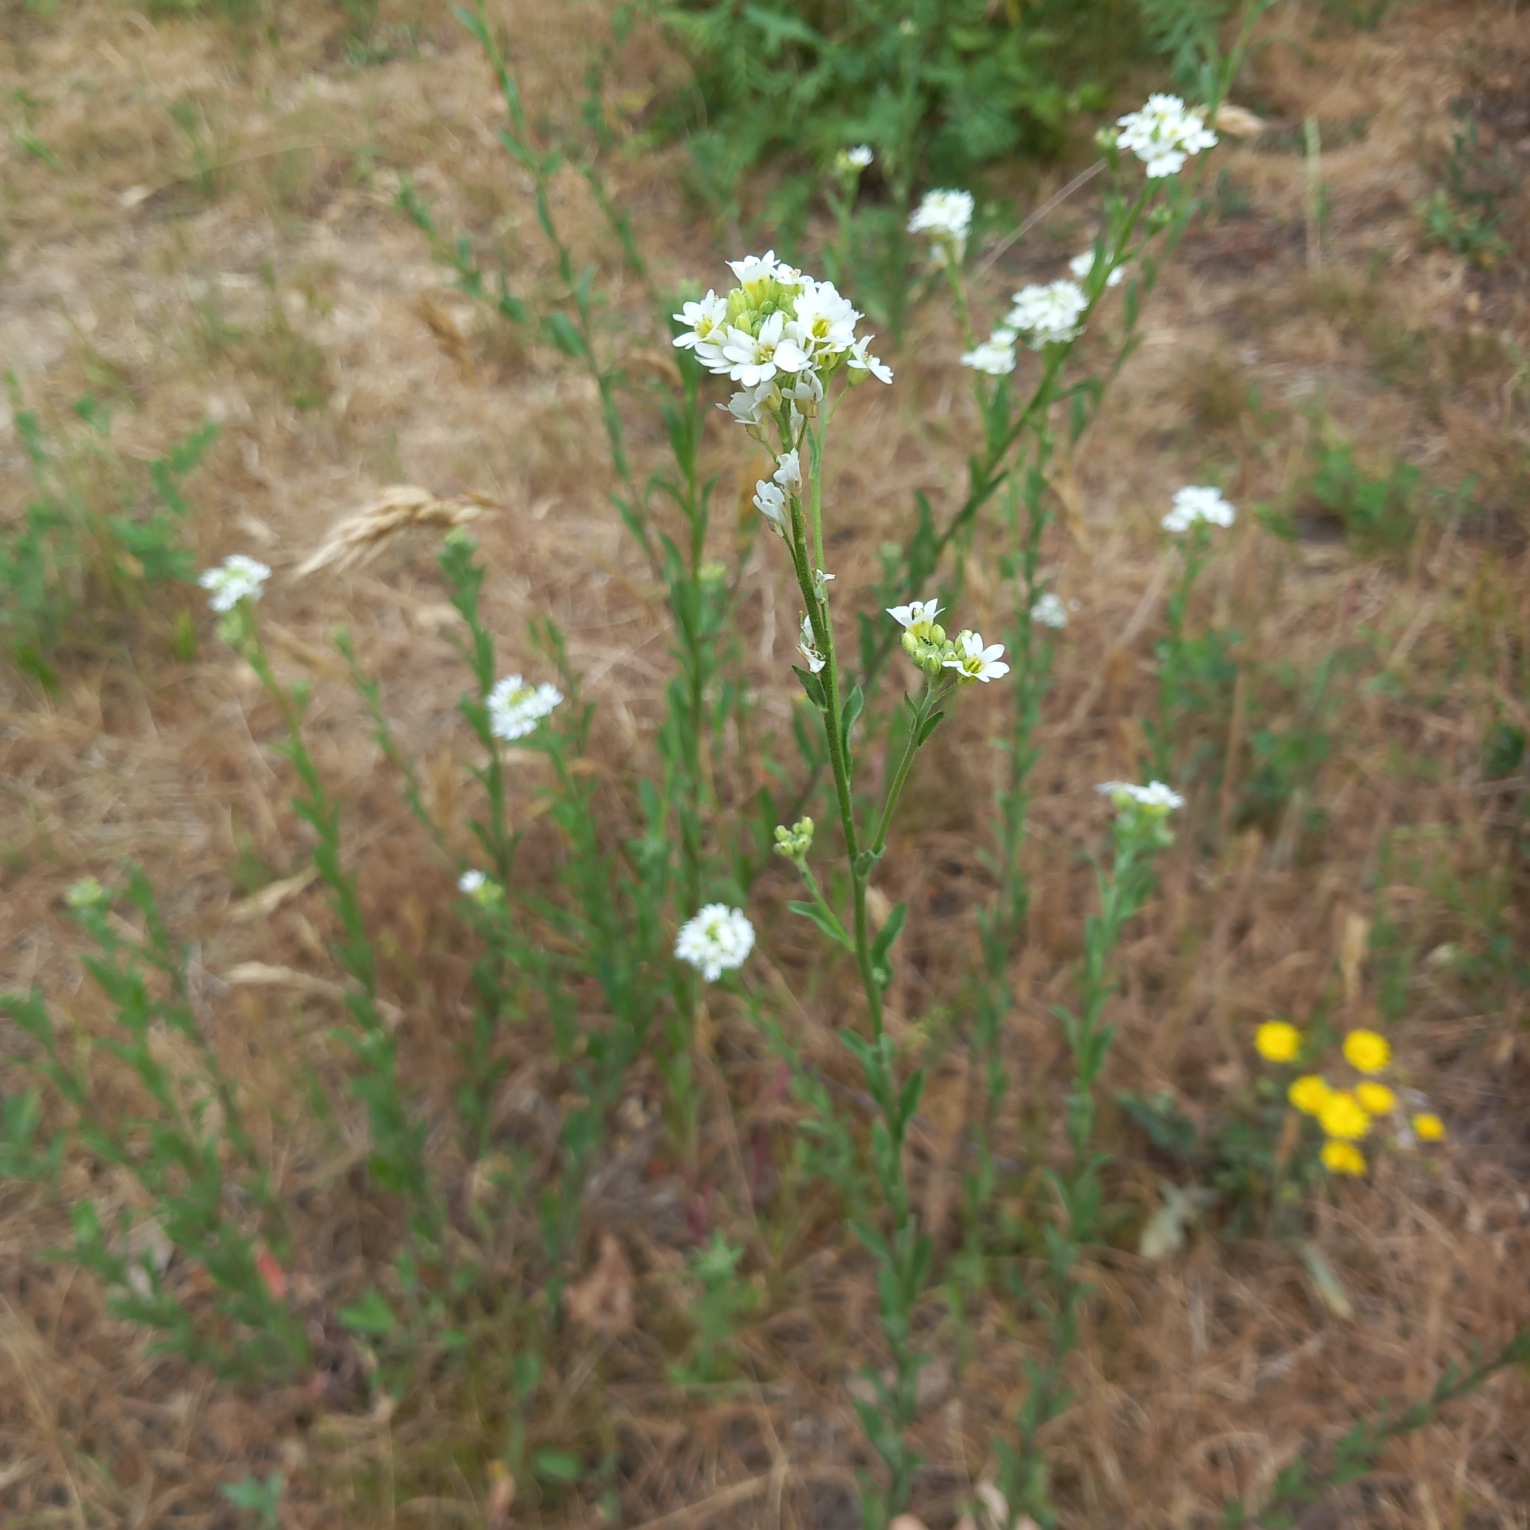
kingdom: Plantae
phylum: Tracheophyta
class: Magnoliopsida
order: Brassicales
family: Brassicaceae
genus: Berteroa
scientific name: Berteroa incana
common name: Kløvplade
